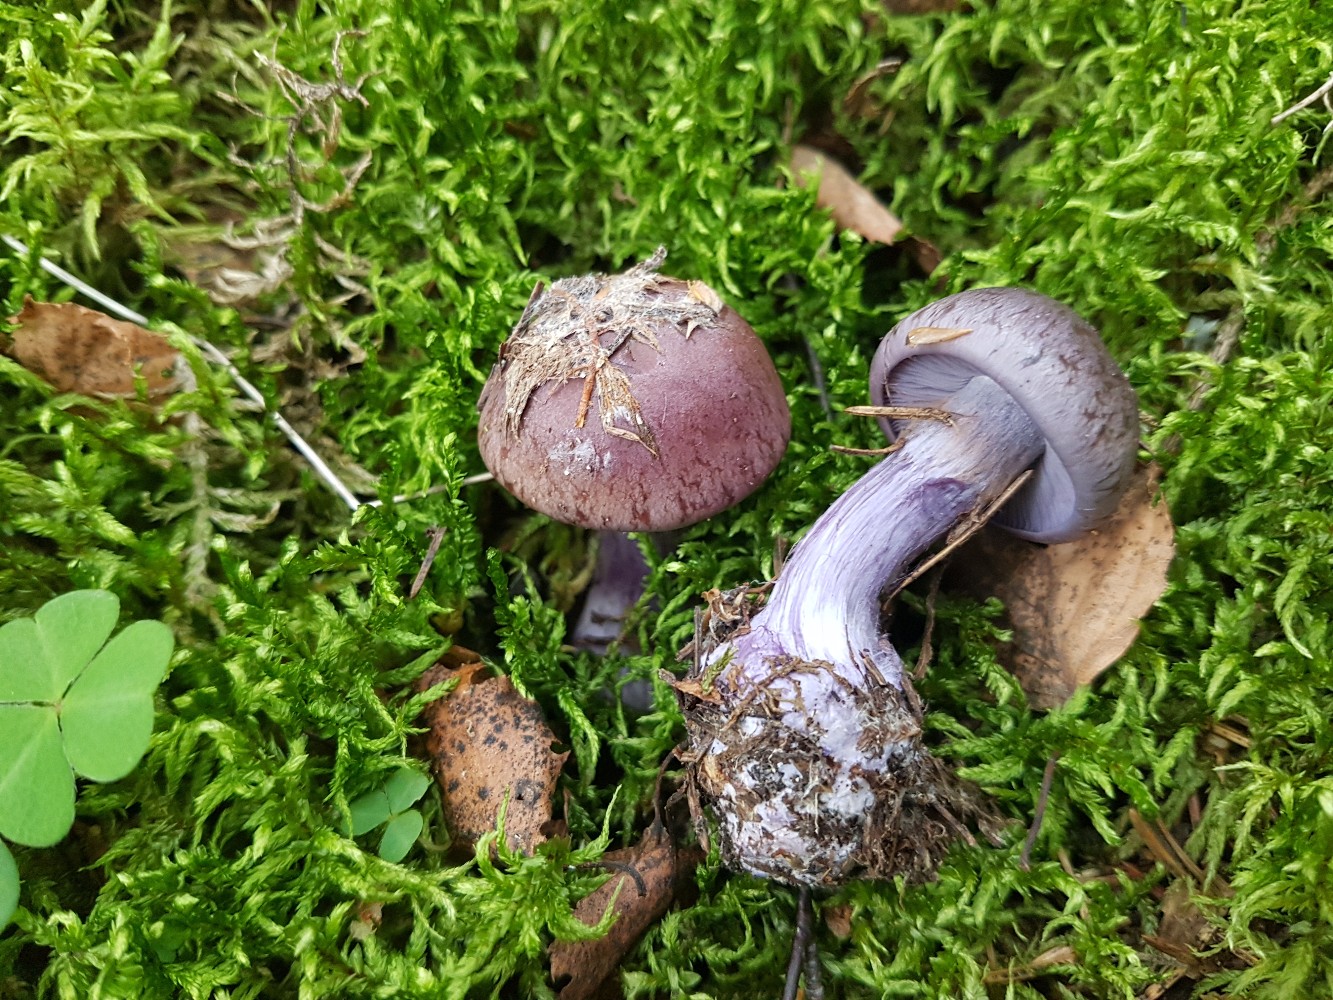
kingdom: Fungi
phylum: Basidiomycota
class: Agaricomycetes
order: Agaricales
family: Cortinariaceae
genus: Thaxterogaster
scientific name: Thaxterogaster purpurascens
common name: purpurbrun slørhat
